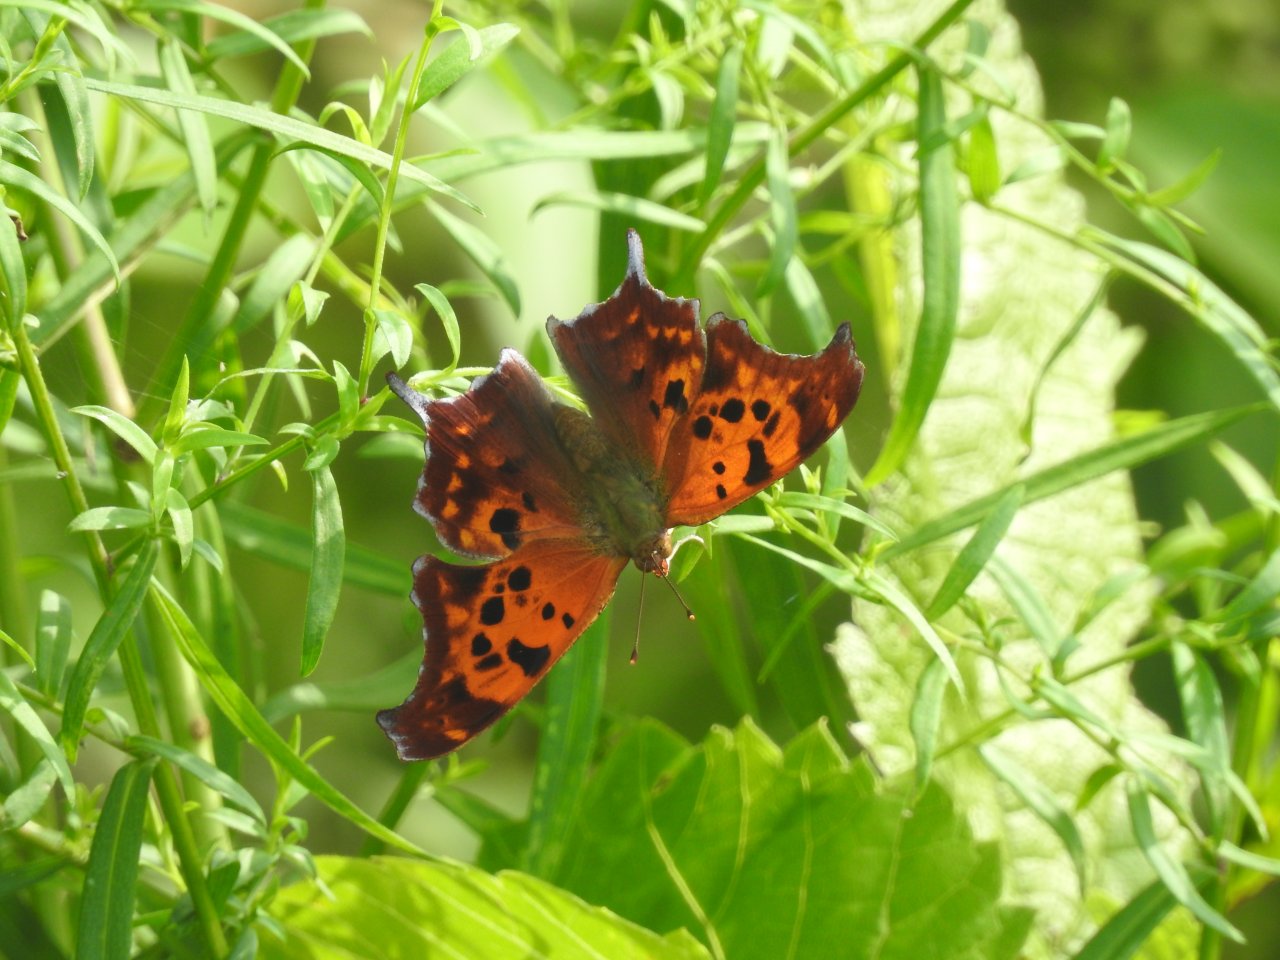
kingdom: Animalia
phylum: Arthropoda
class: Insecta
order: Lepidoptera
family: Nymphalidae
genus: Polygonia
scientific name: Polygonia interrogationis
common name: Question Mark
